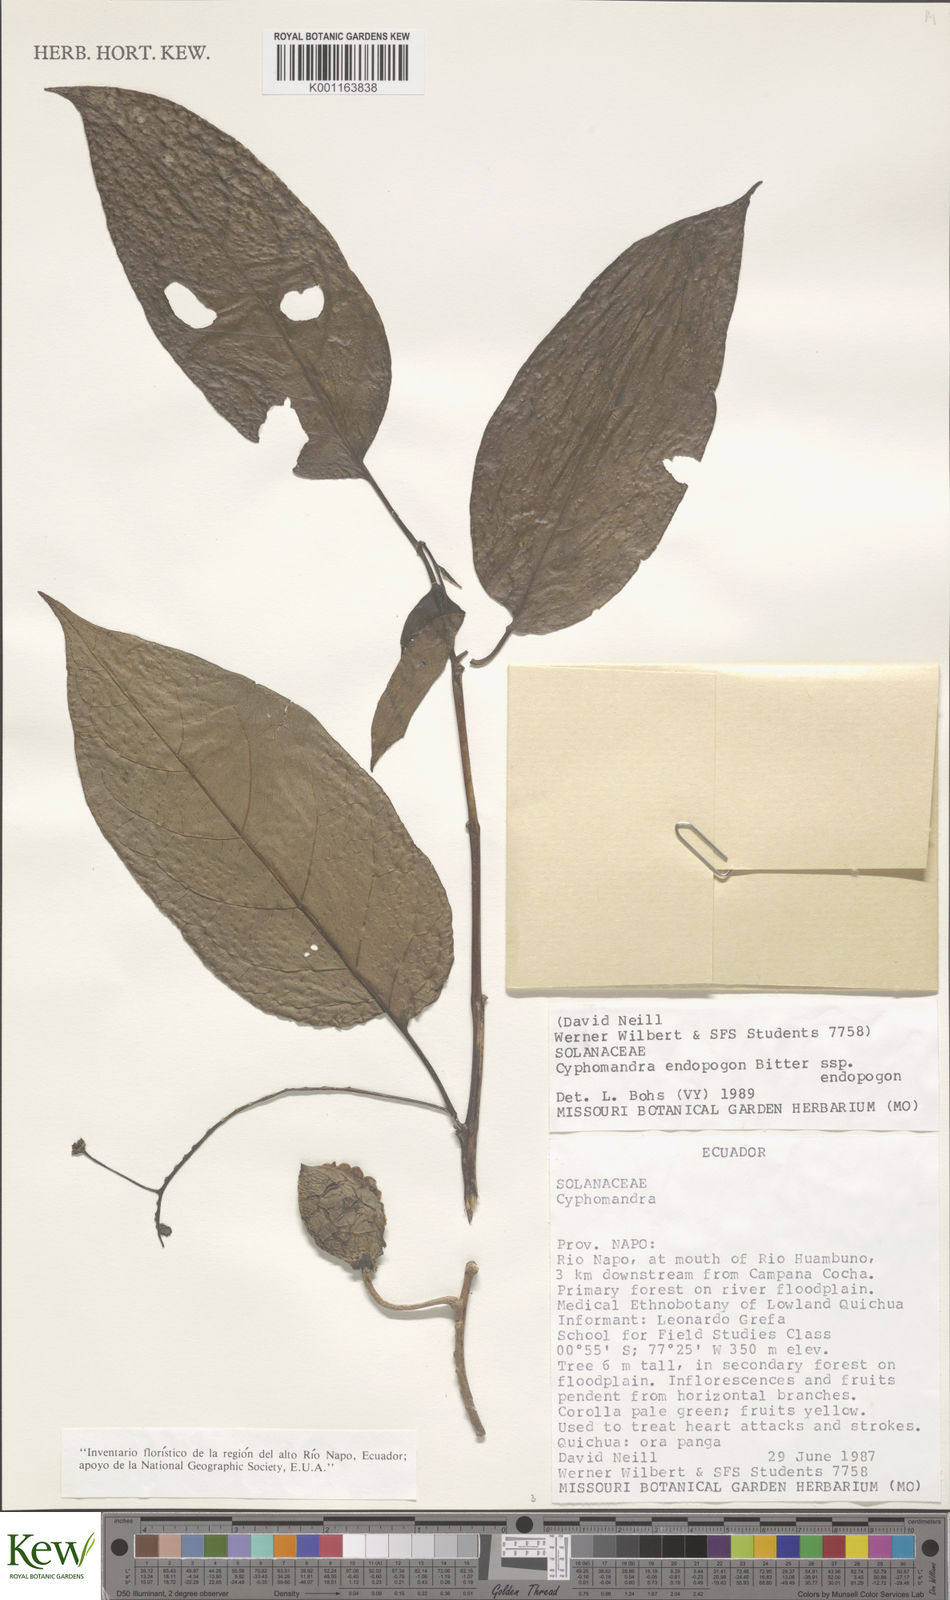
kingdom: Plantae
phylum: Tracheophyta
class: Magnoliopsida
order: Solanales
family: Solanaceae
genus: Solanum
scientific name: Solanum endopogon
